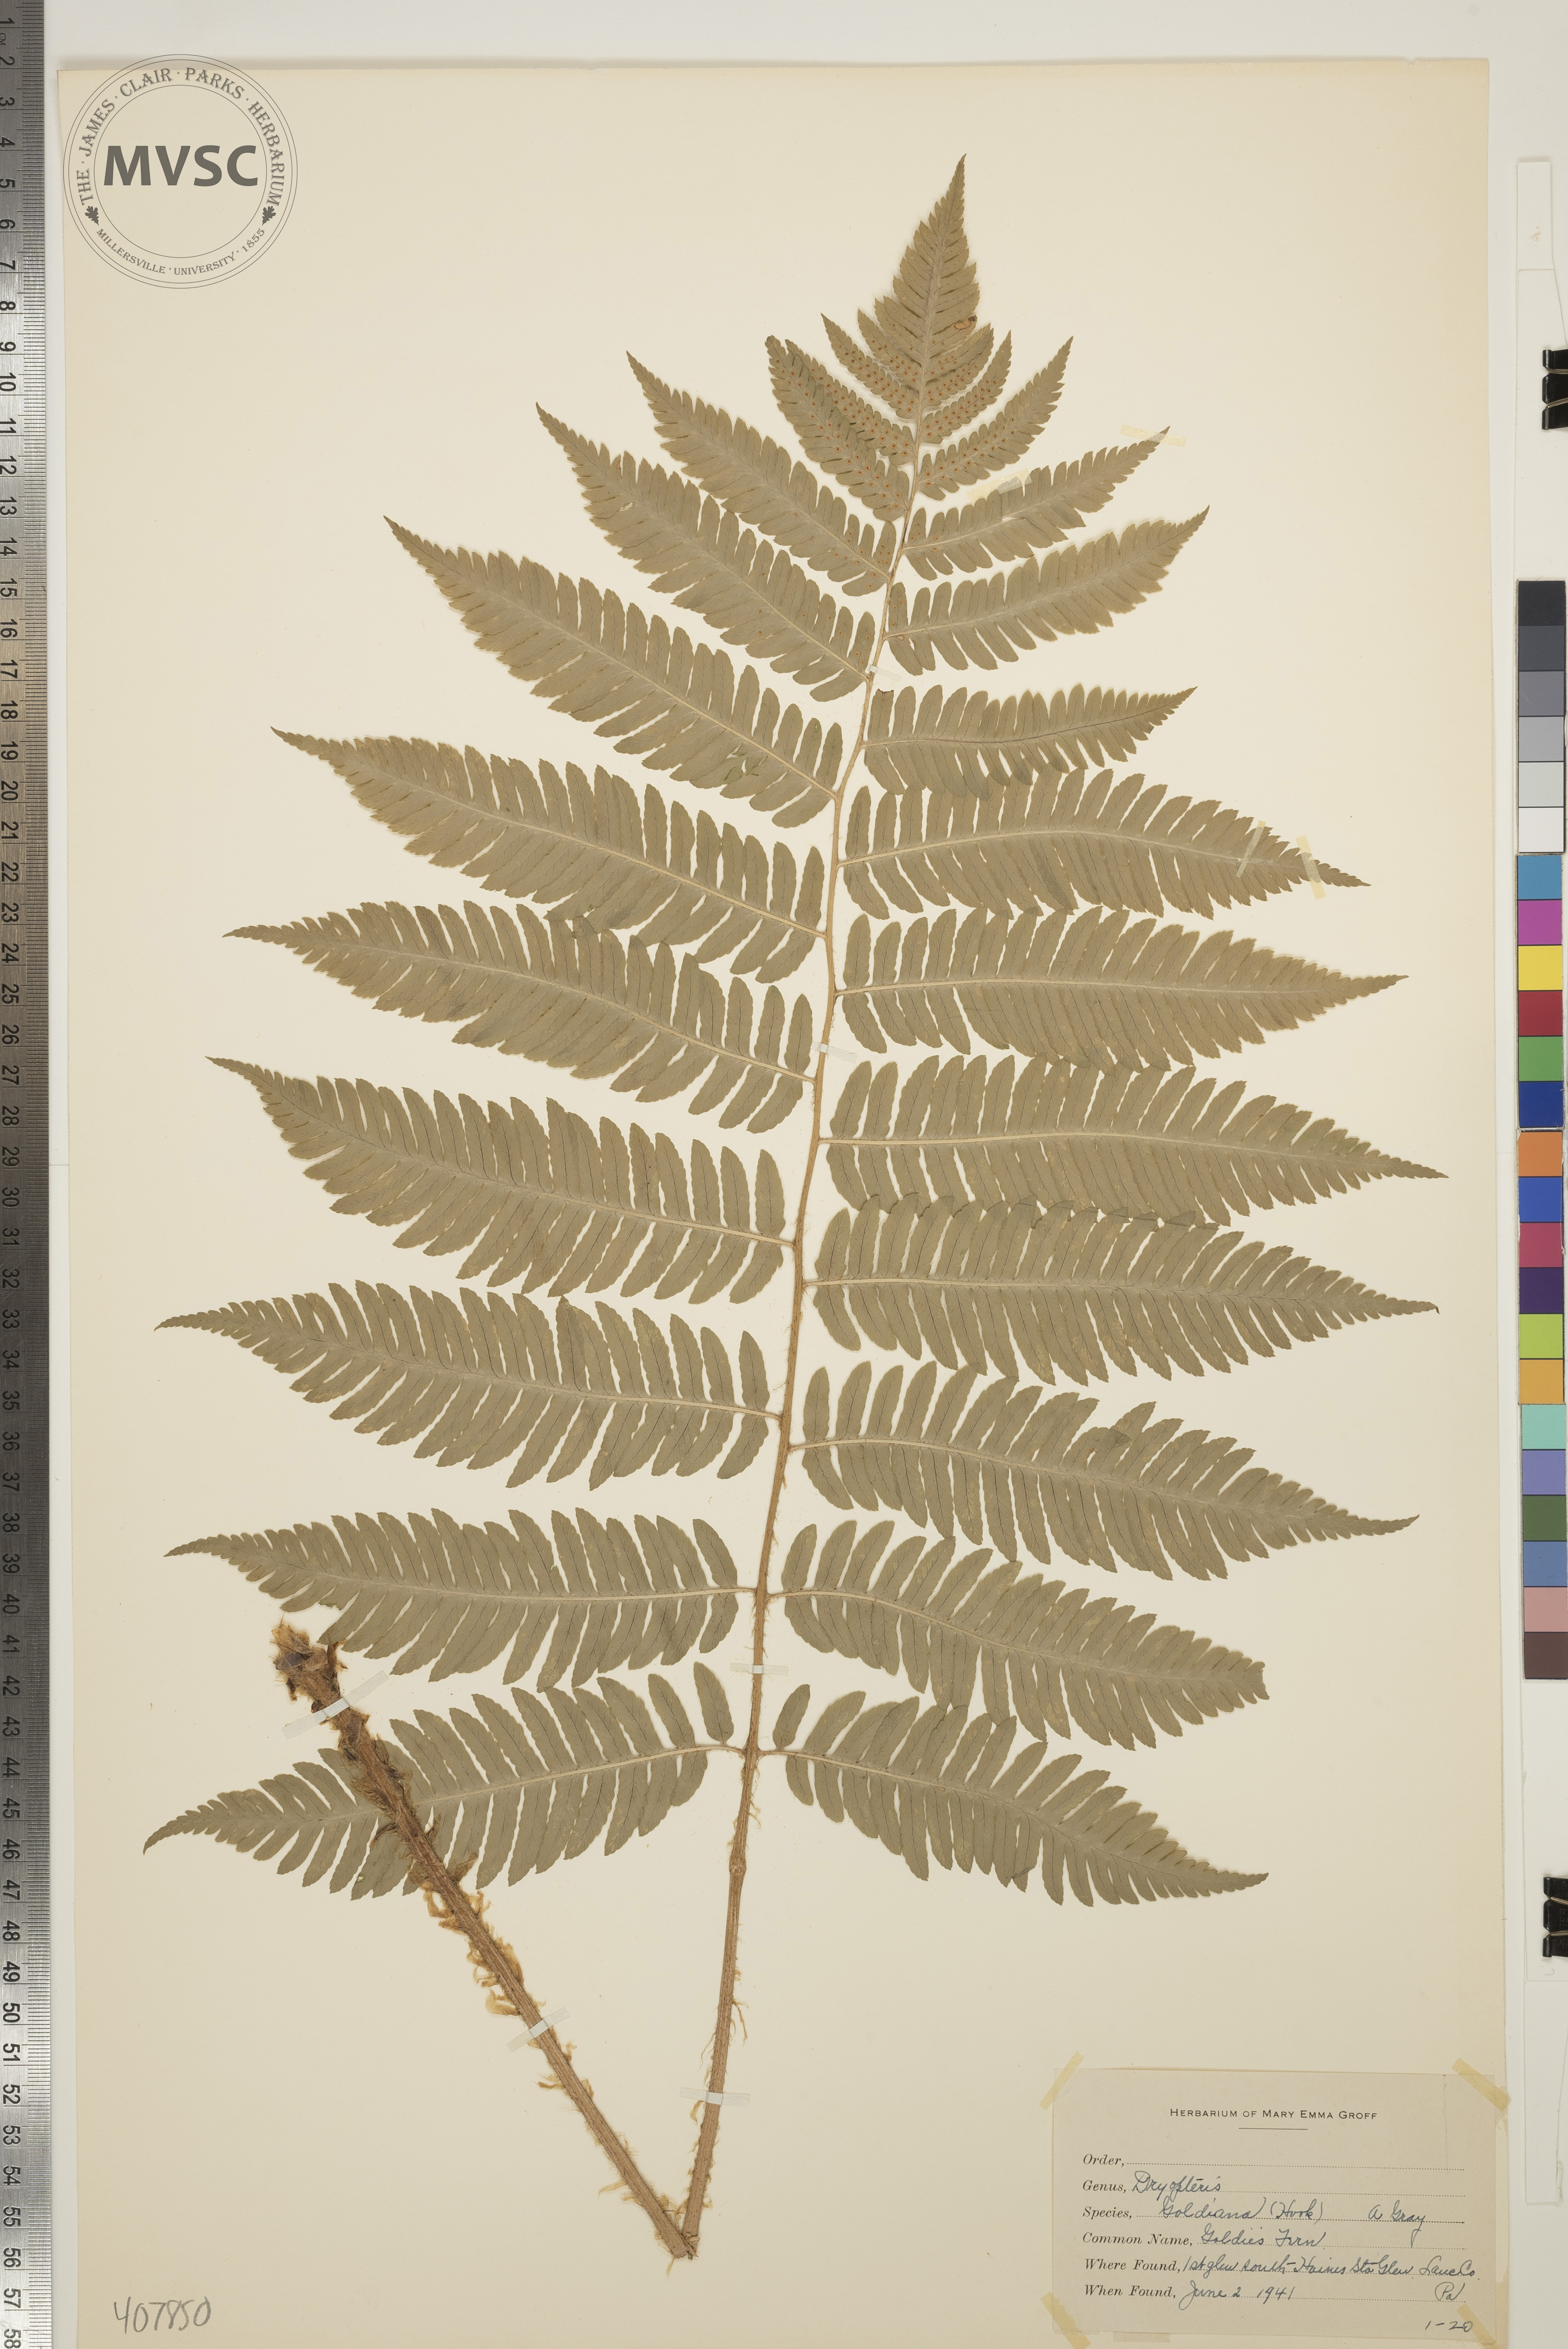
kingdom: Plantae
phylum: Tracheophyta
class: Polypodiopsida
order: Polypodiales
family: Dryopteridaceae
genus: Dryopteris
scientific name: Dryopteris goeldiana
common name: Goldie's Fern
